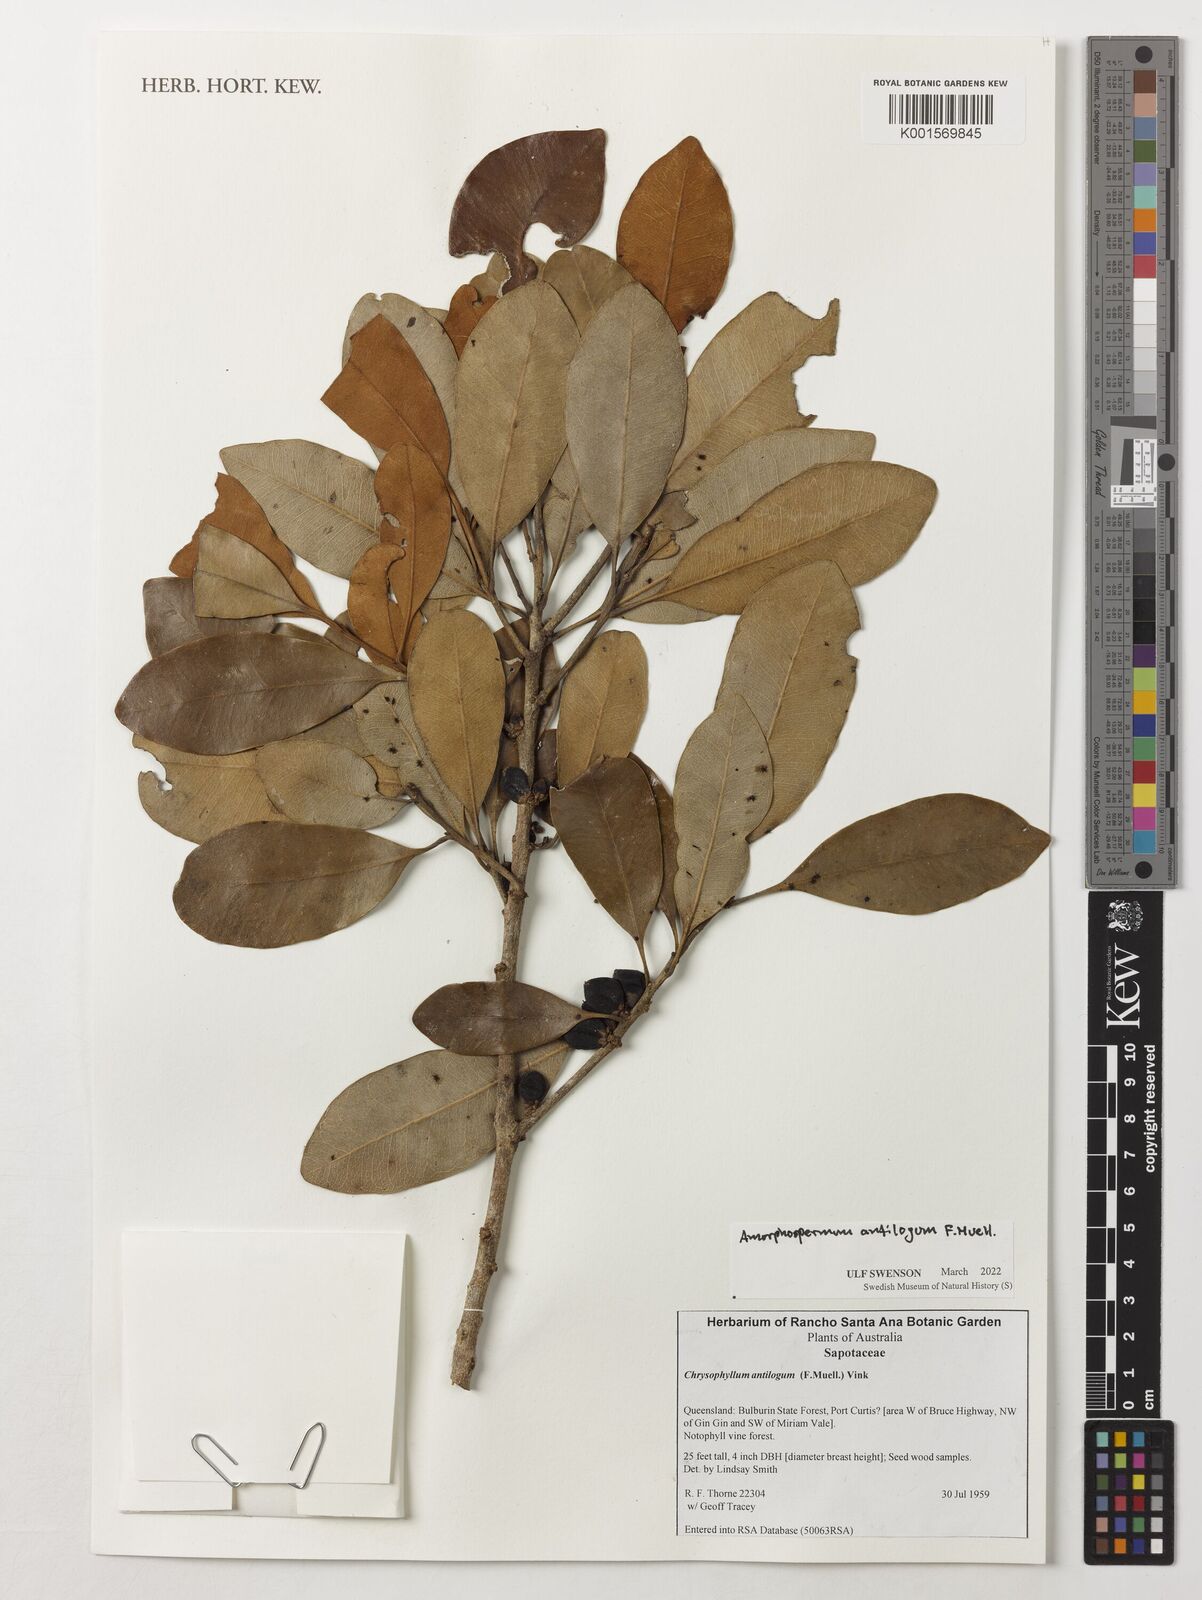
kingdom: Plantae
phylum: Tracheophyta
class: Magnoliopsida
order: Ericales
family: Sapotaceae
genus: Amorphospermum
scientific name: Amorphospermum antilogum
